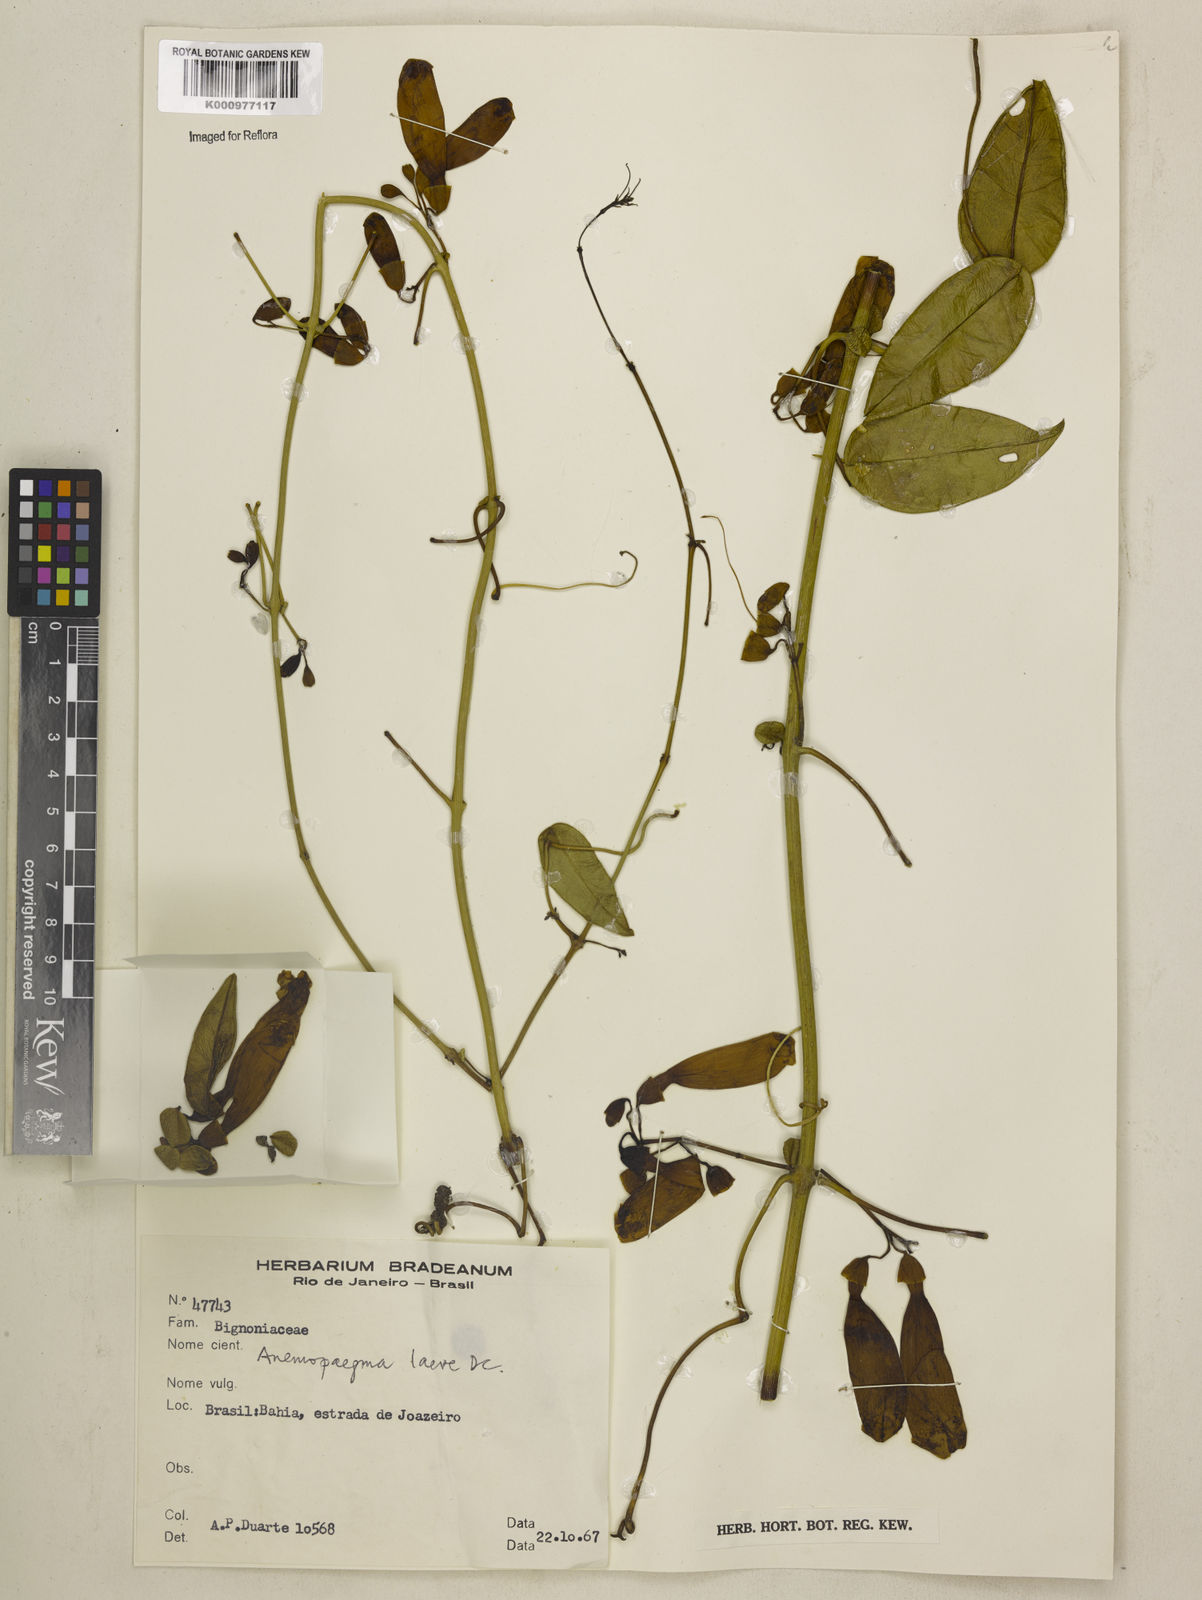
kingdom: Plantae
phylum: Tracheophyta
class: Magnoliopsida
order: Lamiales
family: Bignoniaceae
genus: Anemopaegma
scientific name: Anemopaegma laeve
